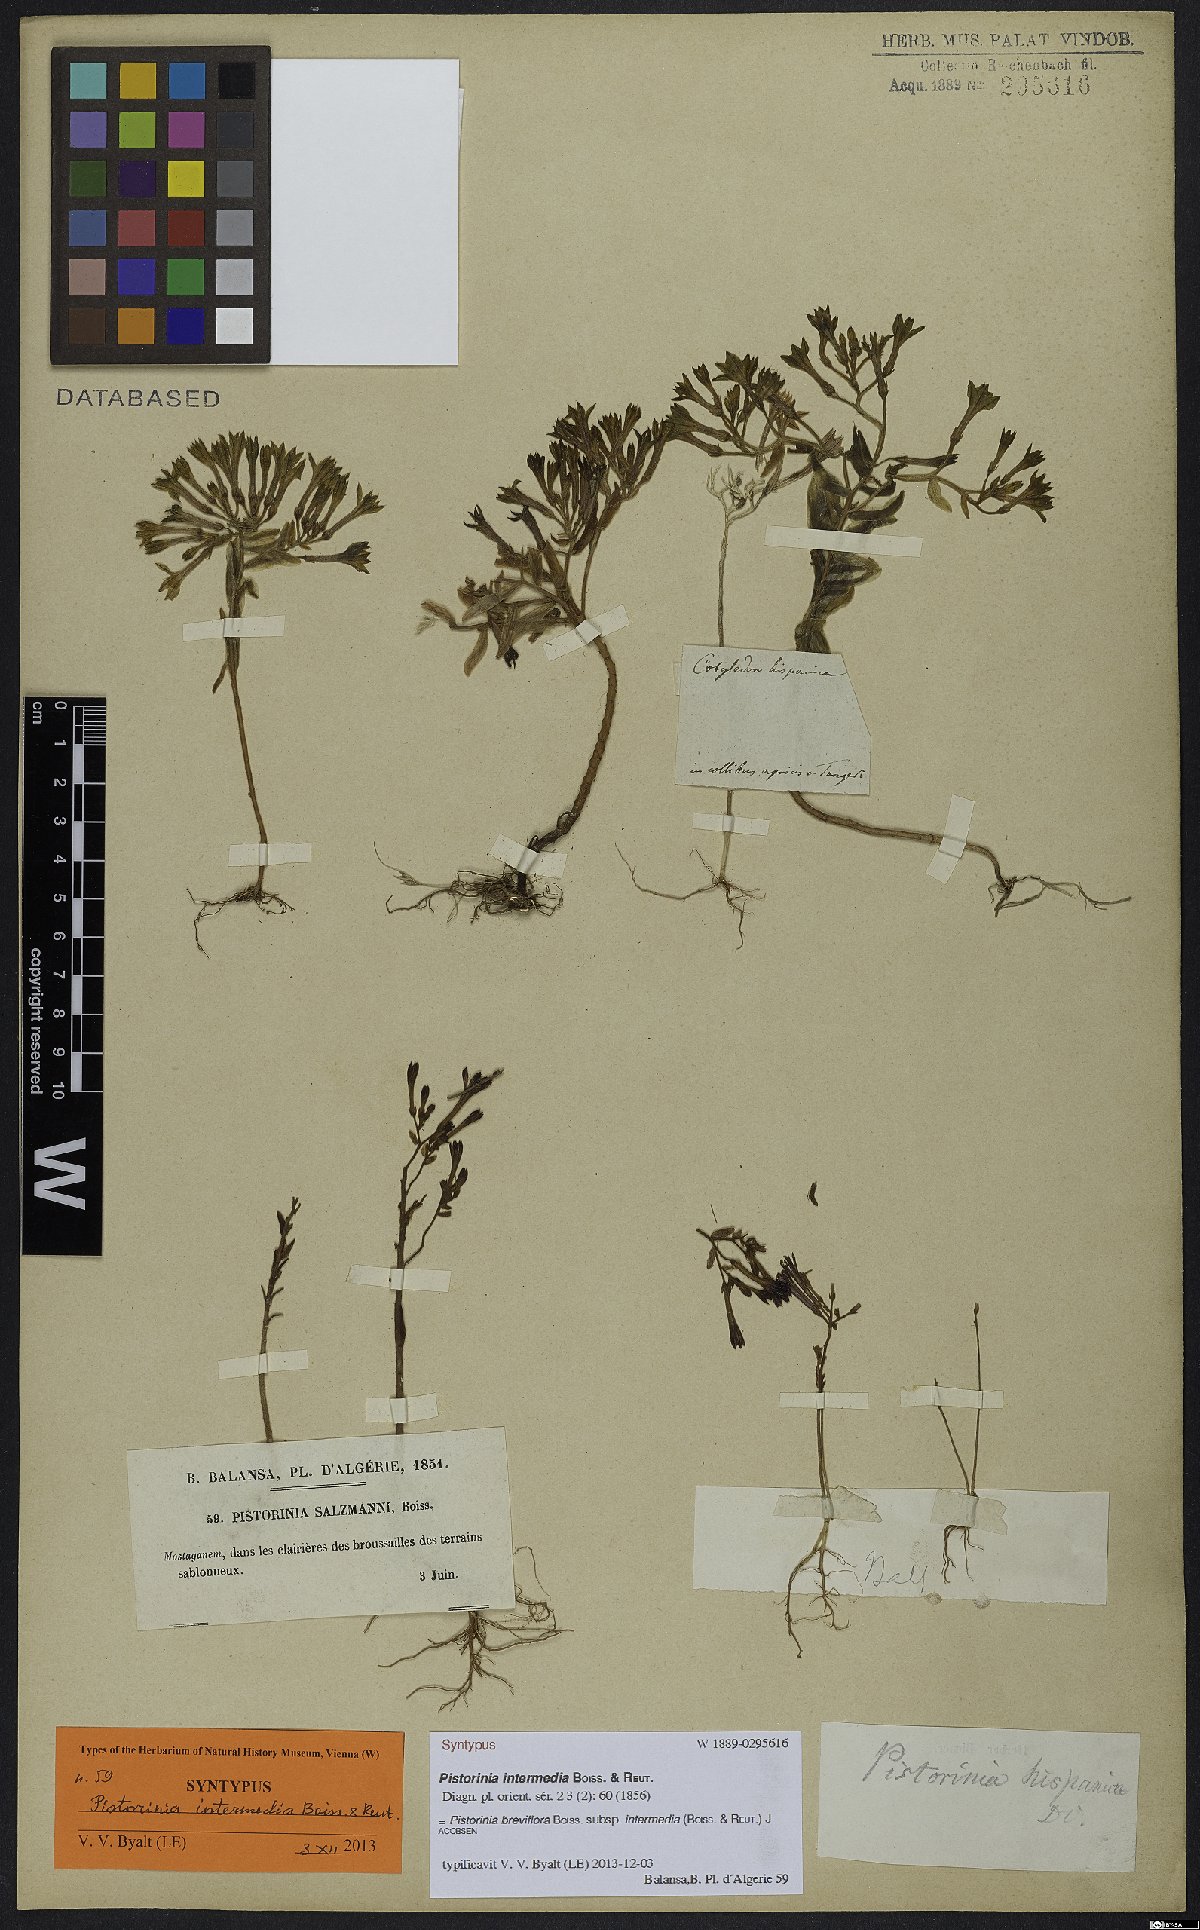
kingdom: Plantae
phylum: Tracheophyta
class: Magnoliopsida
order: Saxifragales
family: Crassulaceae
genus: Pistorinia
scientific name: Pistorinia breviflora
